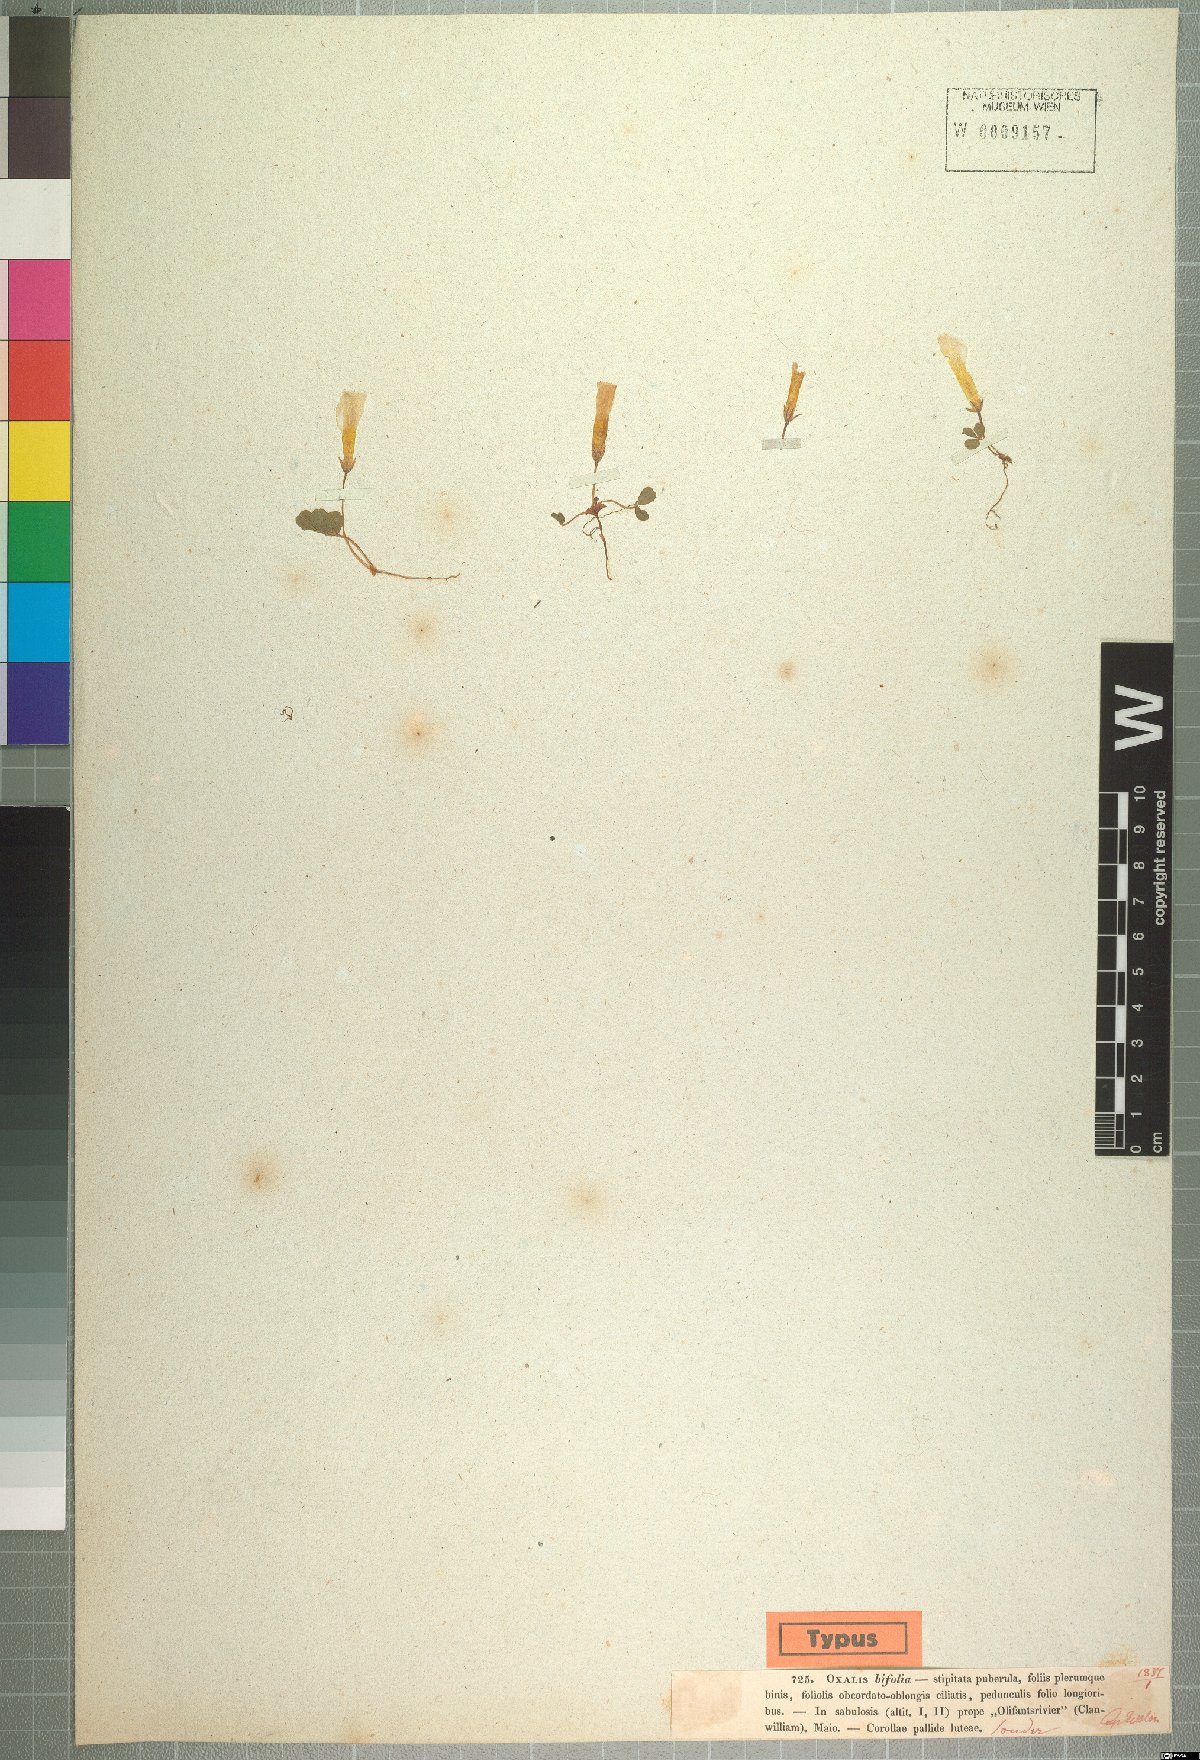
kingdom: Plantae
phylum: Tracheophyta
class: Magnoliopsida
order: Oxalidales
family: Oxalidaceae
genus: Oxalis
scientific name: Oxalis eckloniana
